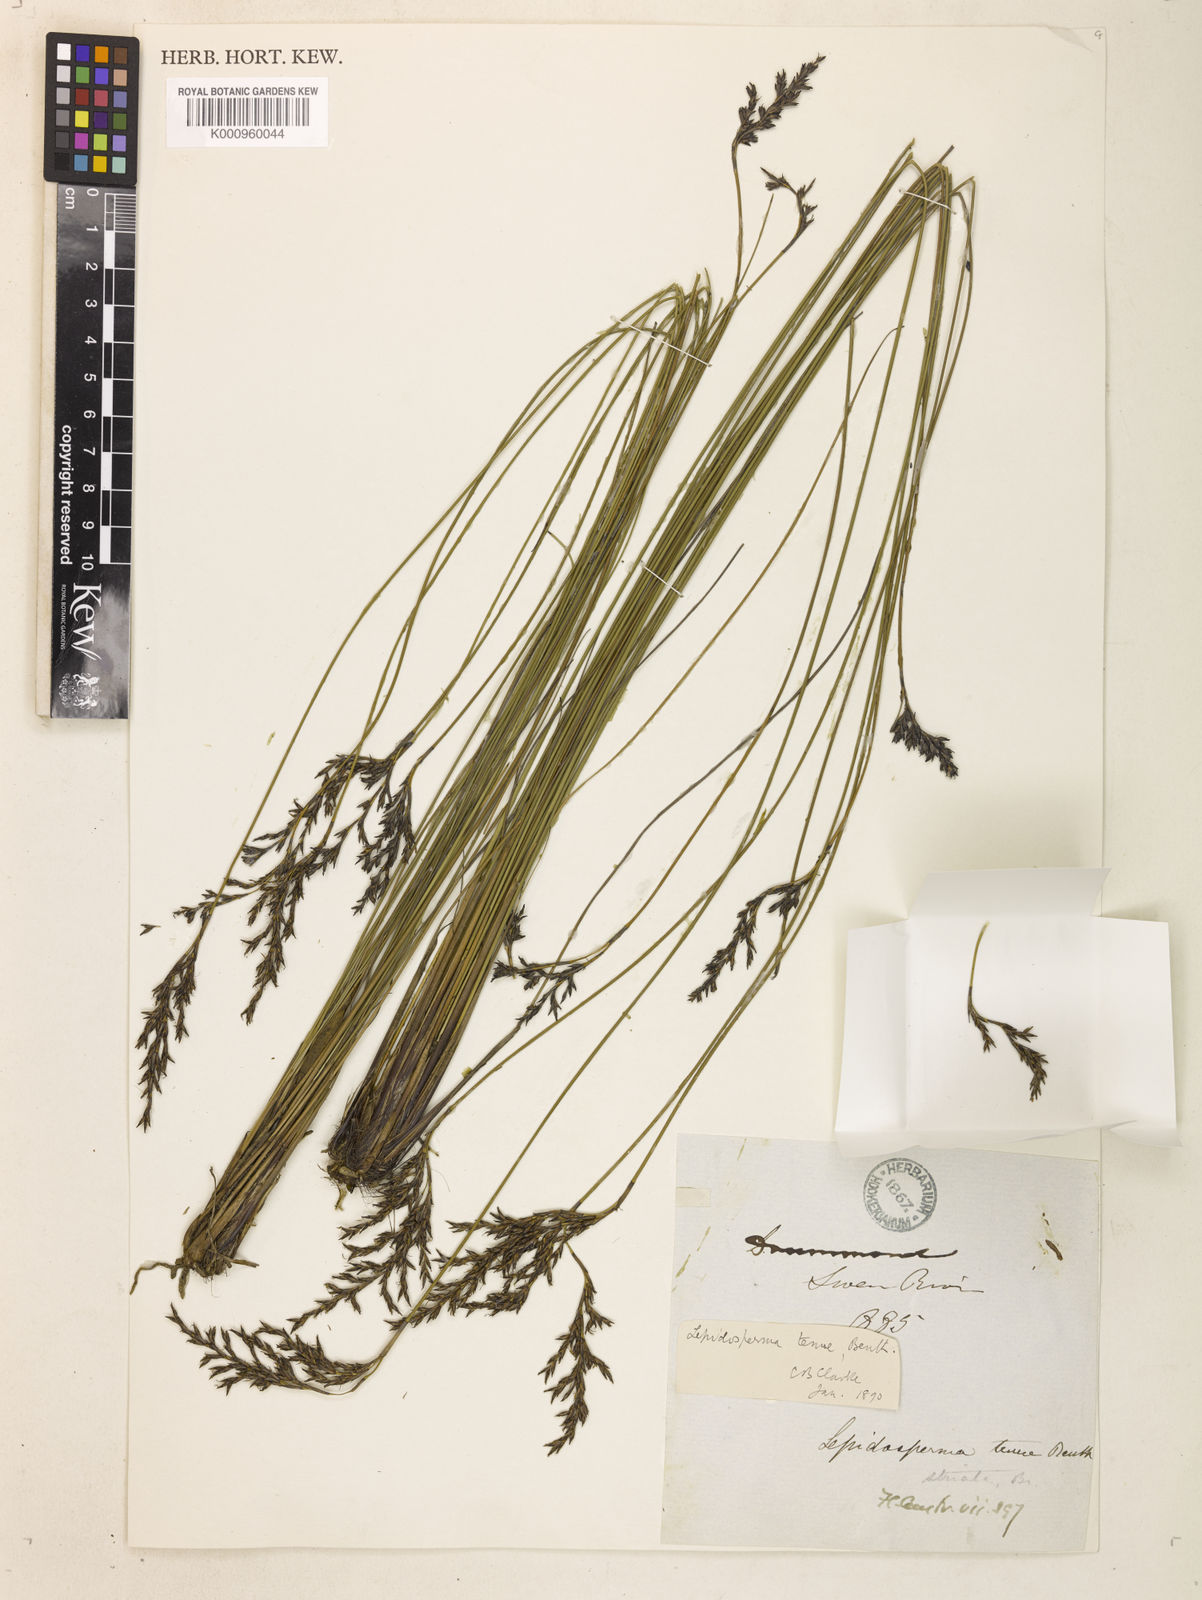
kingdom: Plantae
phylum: Tracheophyta
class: Liliopsida
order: Poales
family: Cyperaceae
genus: Lepidosperma
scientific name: Lepidosperma tenue
